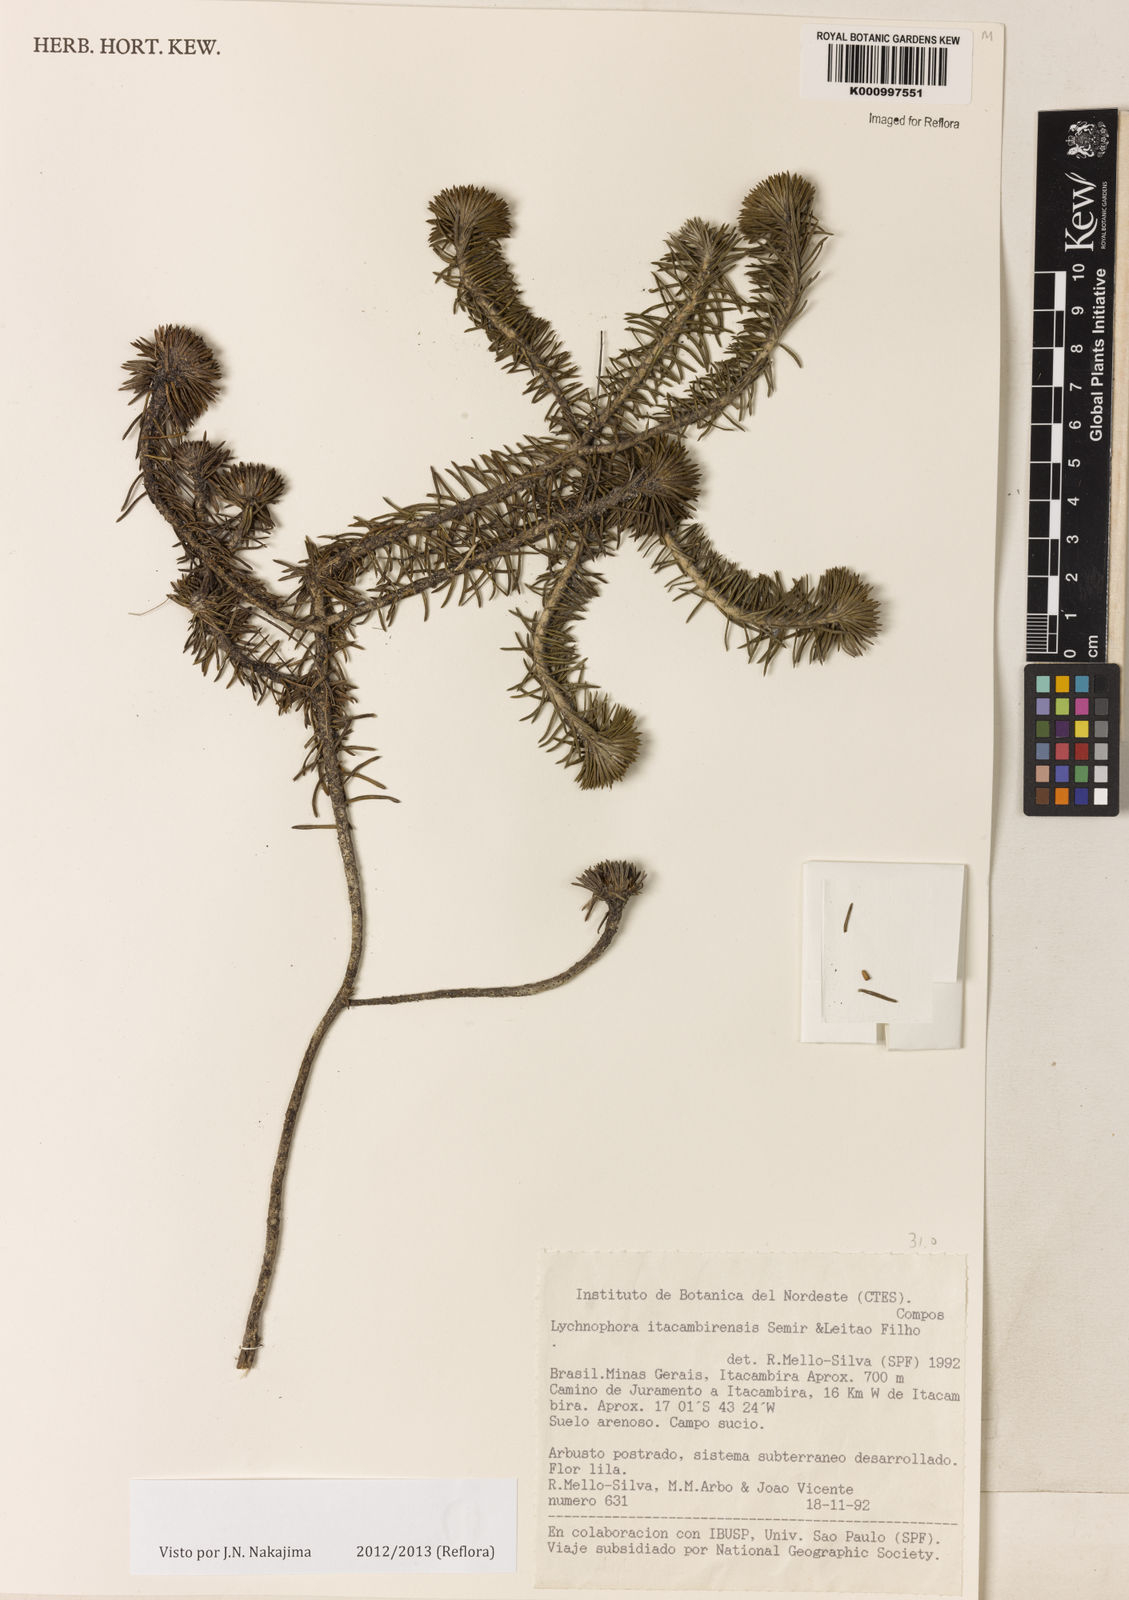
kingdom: Plantae
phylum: Tracheophyta
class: Magnoliopsida
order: Asterales
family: Asteraceae
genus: Lychnophora
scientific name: Lychnophora
